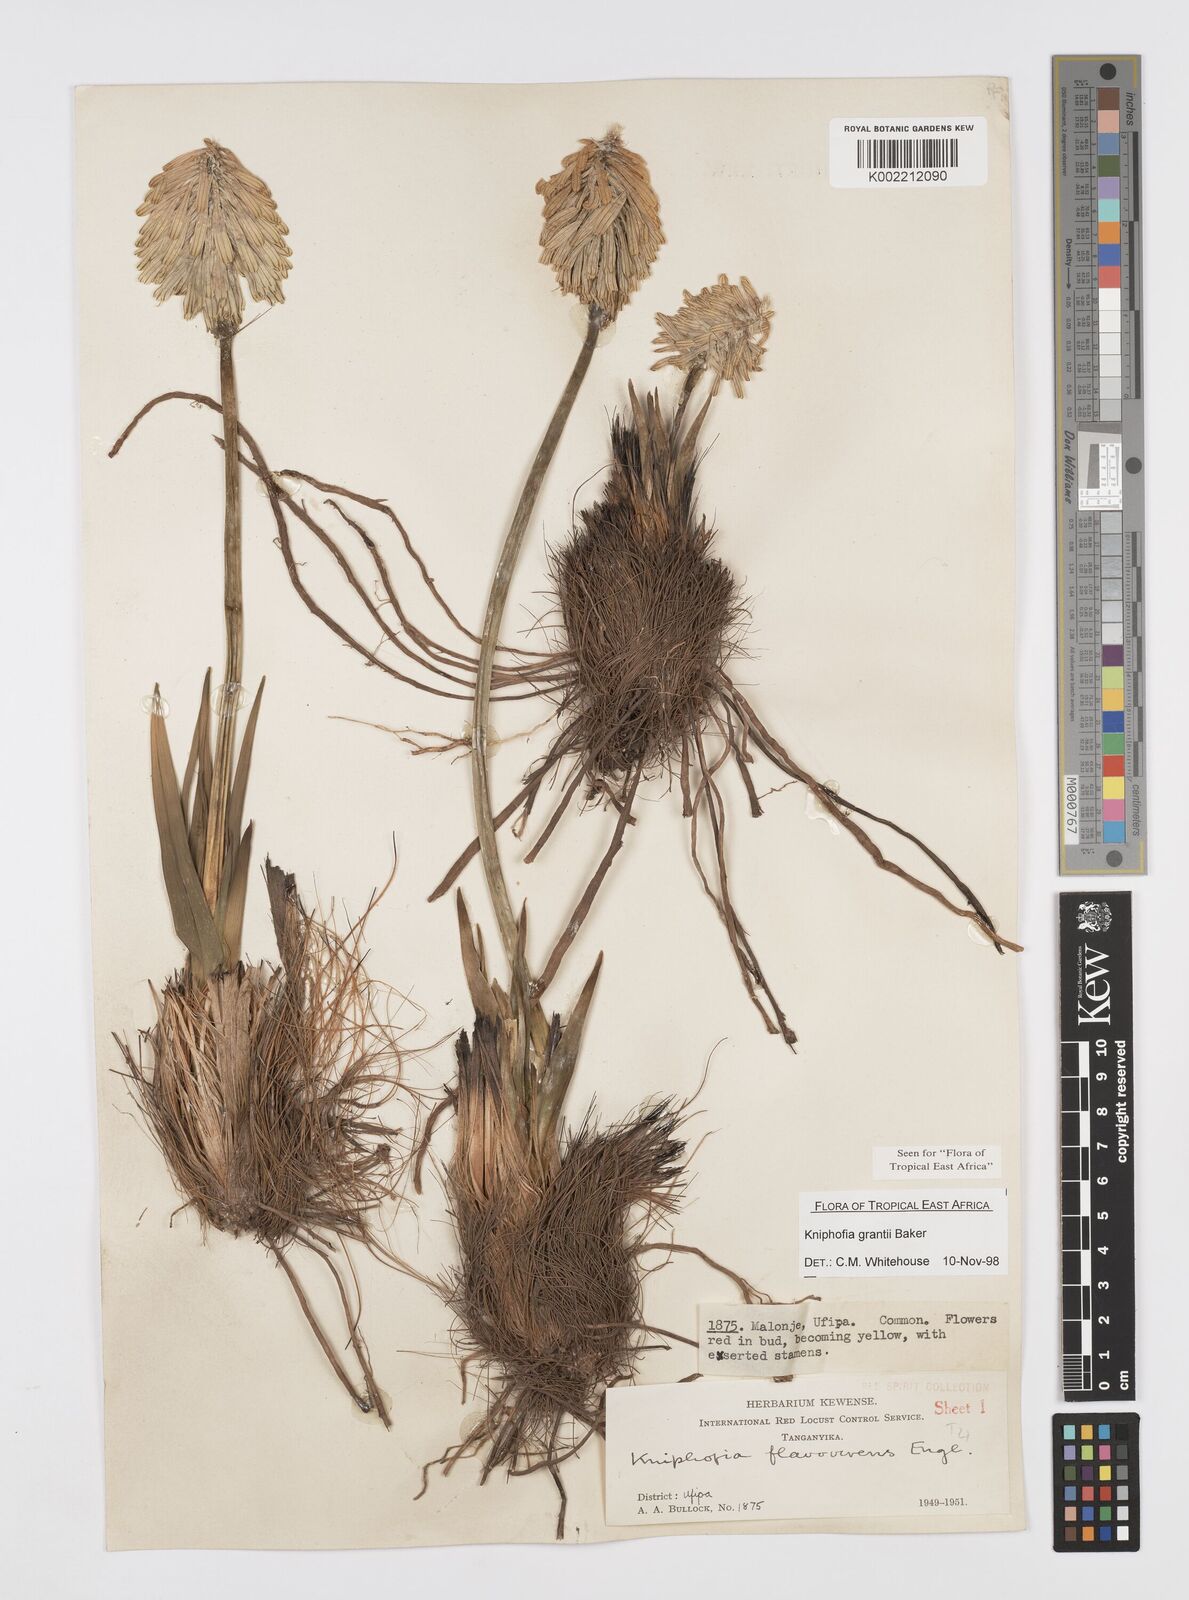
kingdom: Plantae
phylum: Tracheophyta
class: Liliopsida
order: Asparagales
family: Asphodelaceae
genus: Kniphofia
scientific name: Kniphofia grantii
